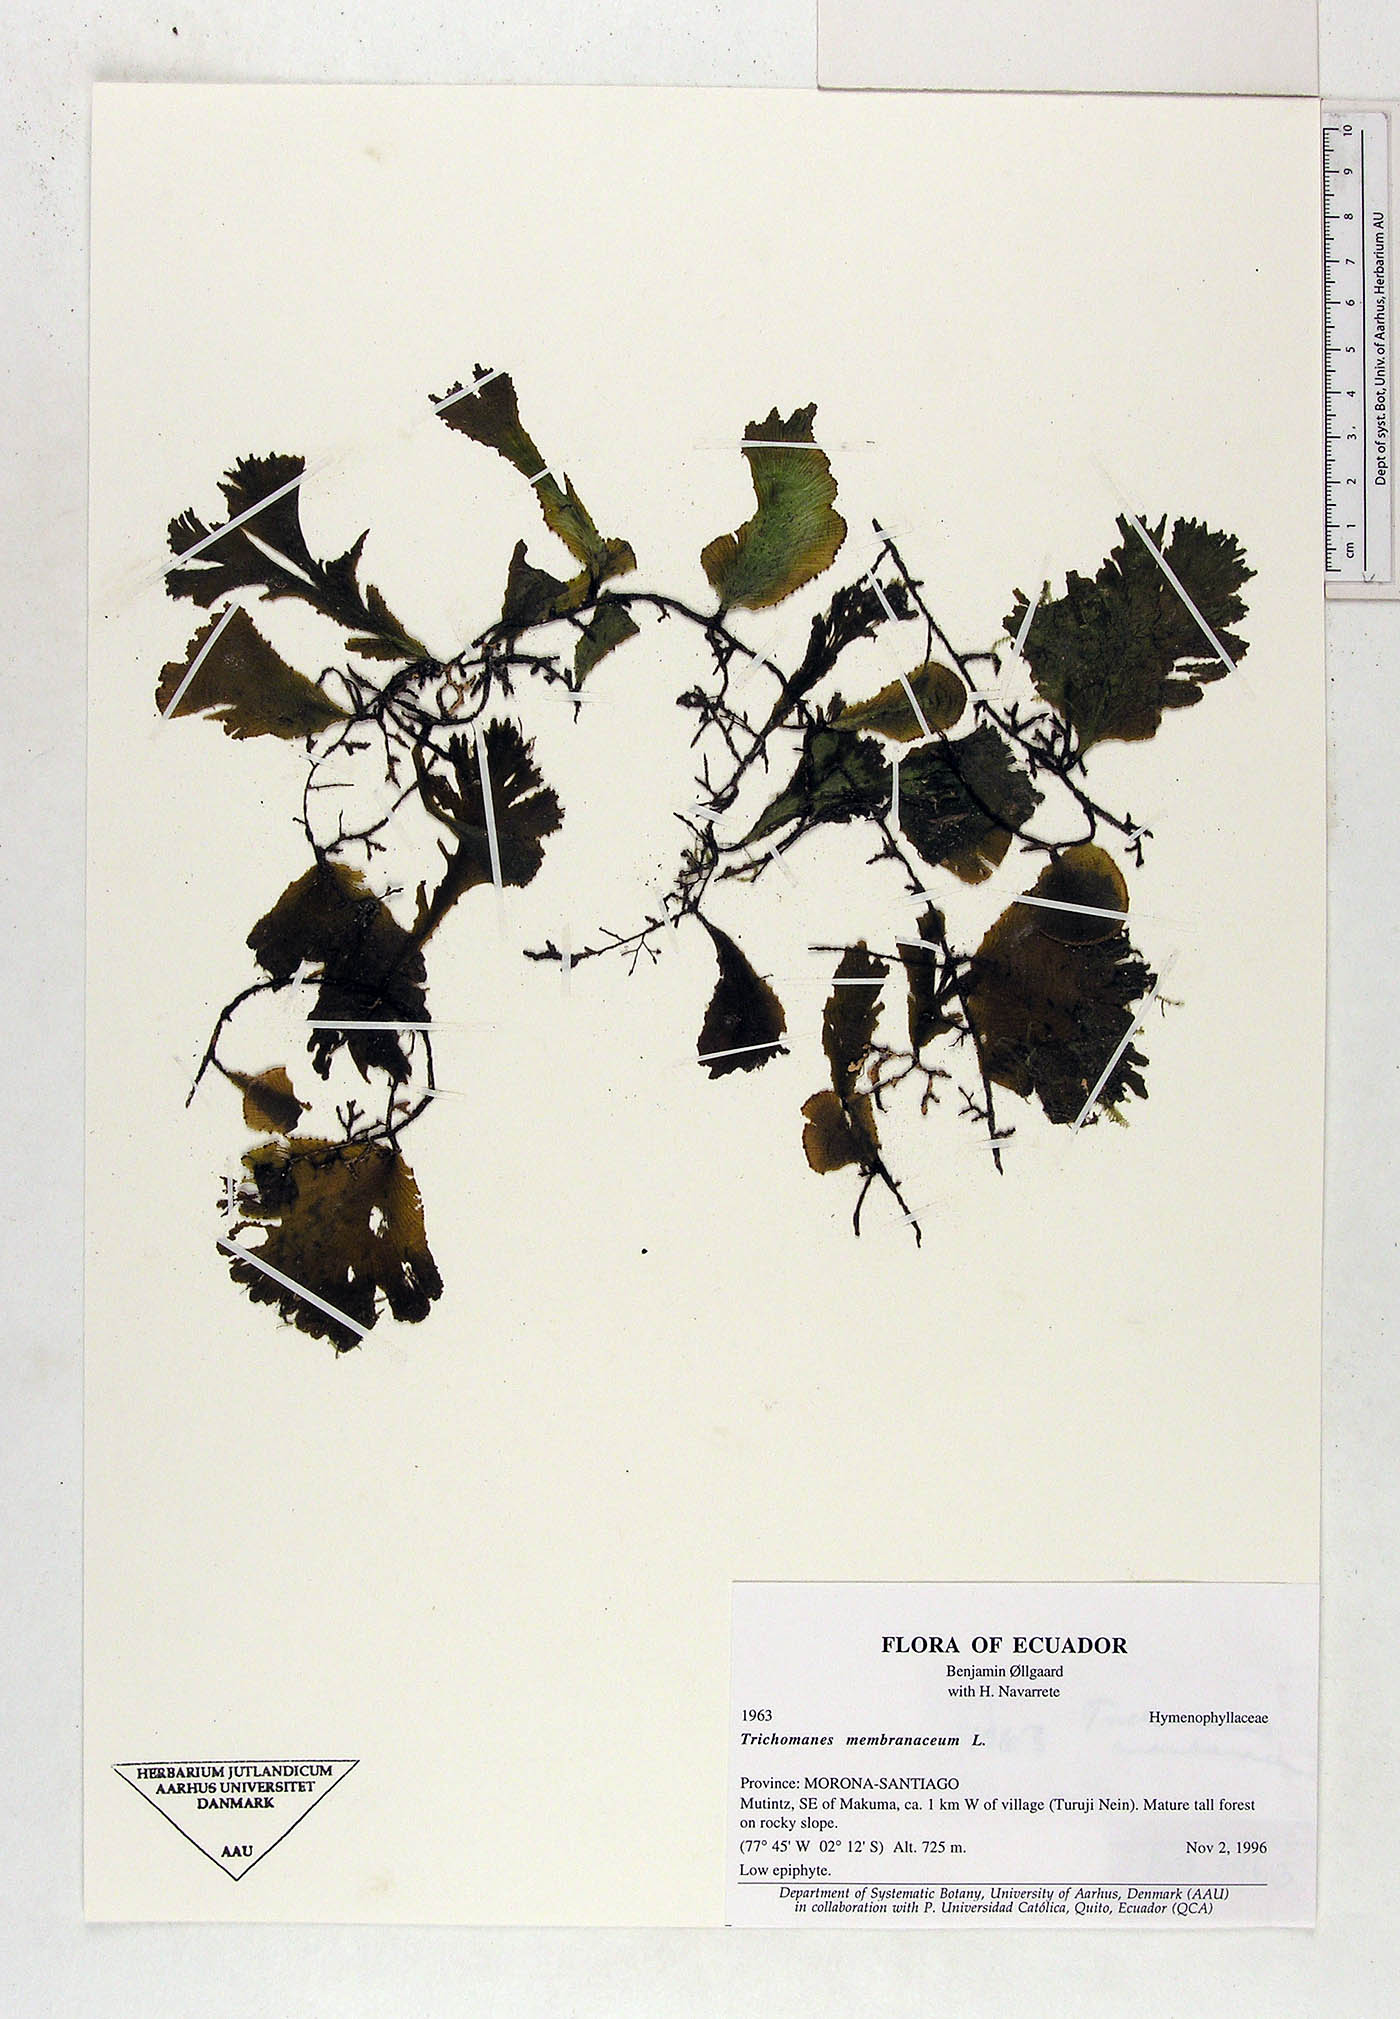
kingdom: Plantae
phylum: Tracheophyta
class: Polypodiopsida
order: Hymenophyllales
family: Hymenophyllaceae
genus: Didymoglossum
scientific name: Didymoglossum membranaceum
